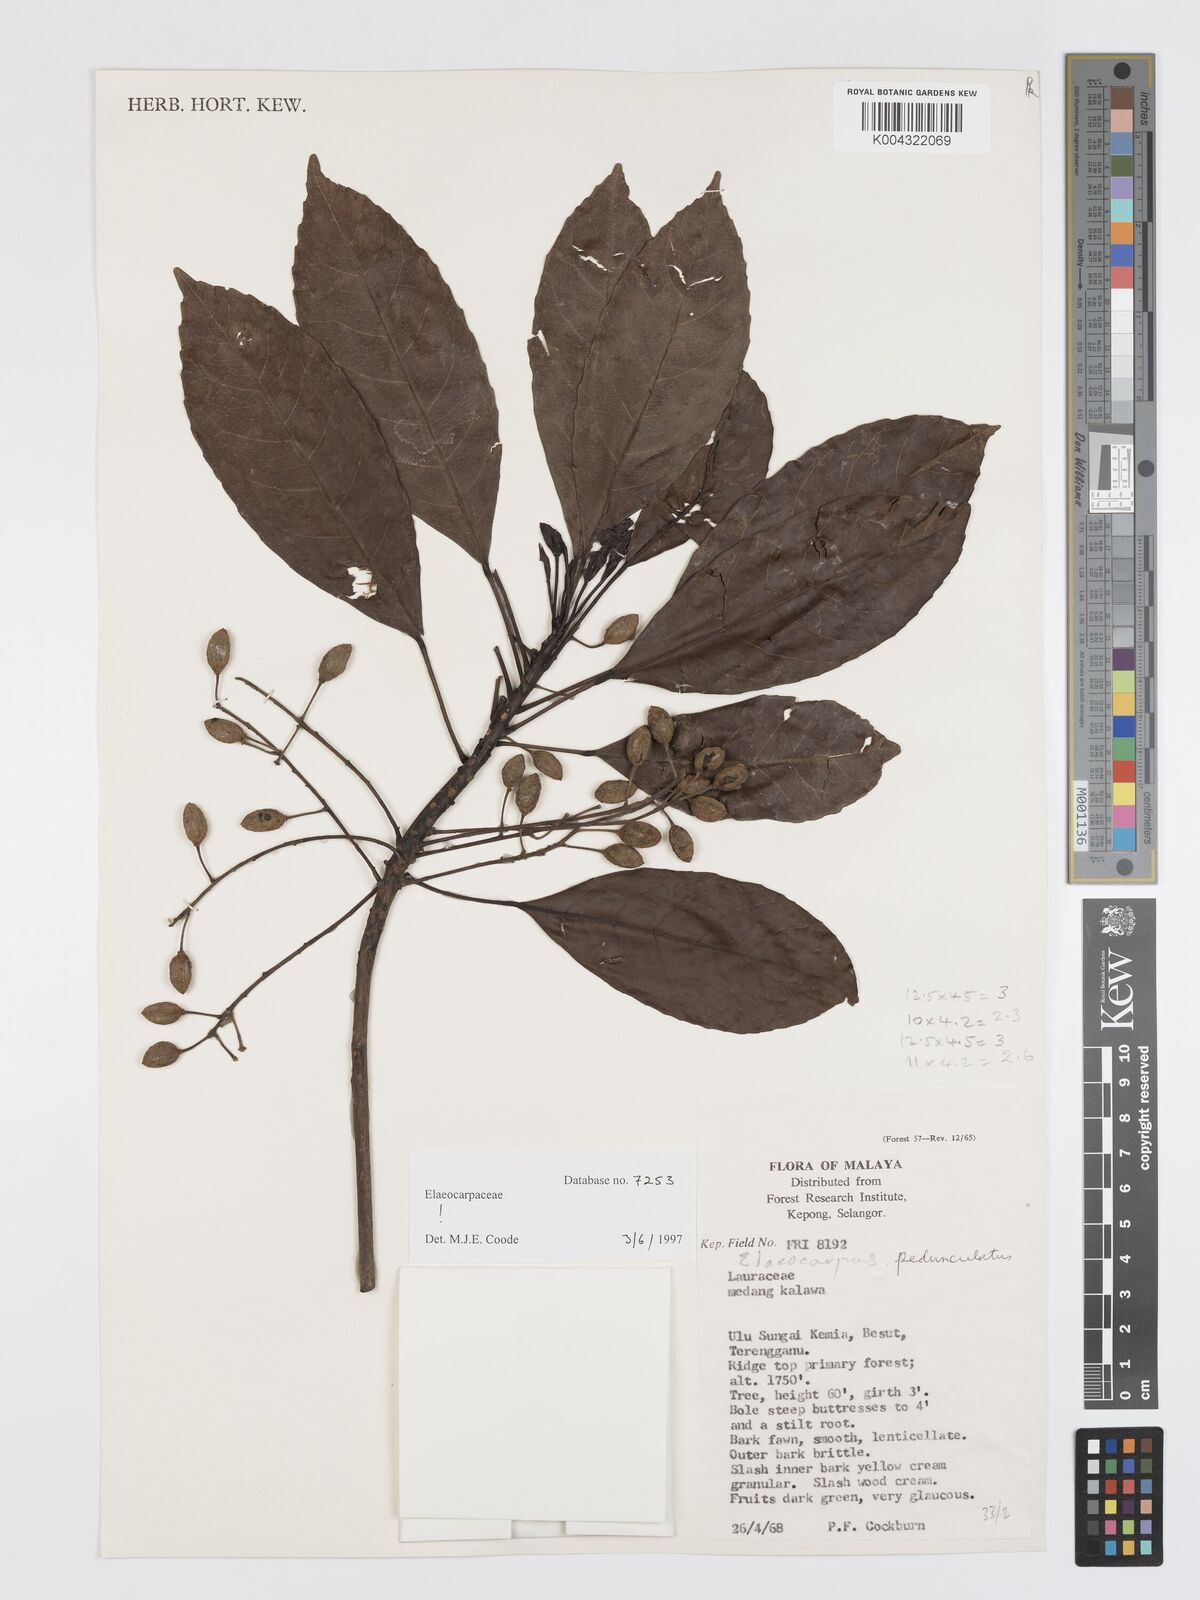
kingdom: Plantae
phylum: Tracheophyta
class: Magnoliopsida
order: Oxalidales
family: Elaeocarpaceae
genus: Elaeocarpus
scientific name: Elaeocarpus pedunculatus
